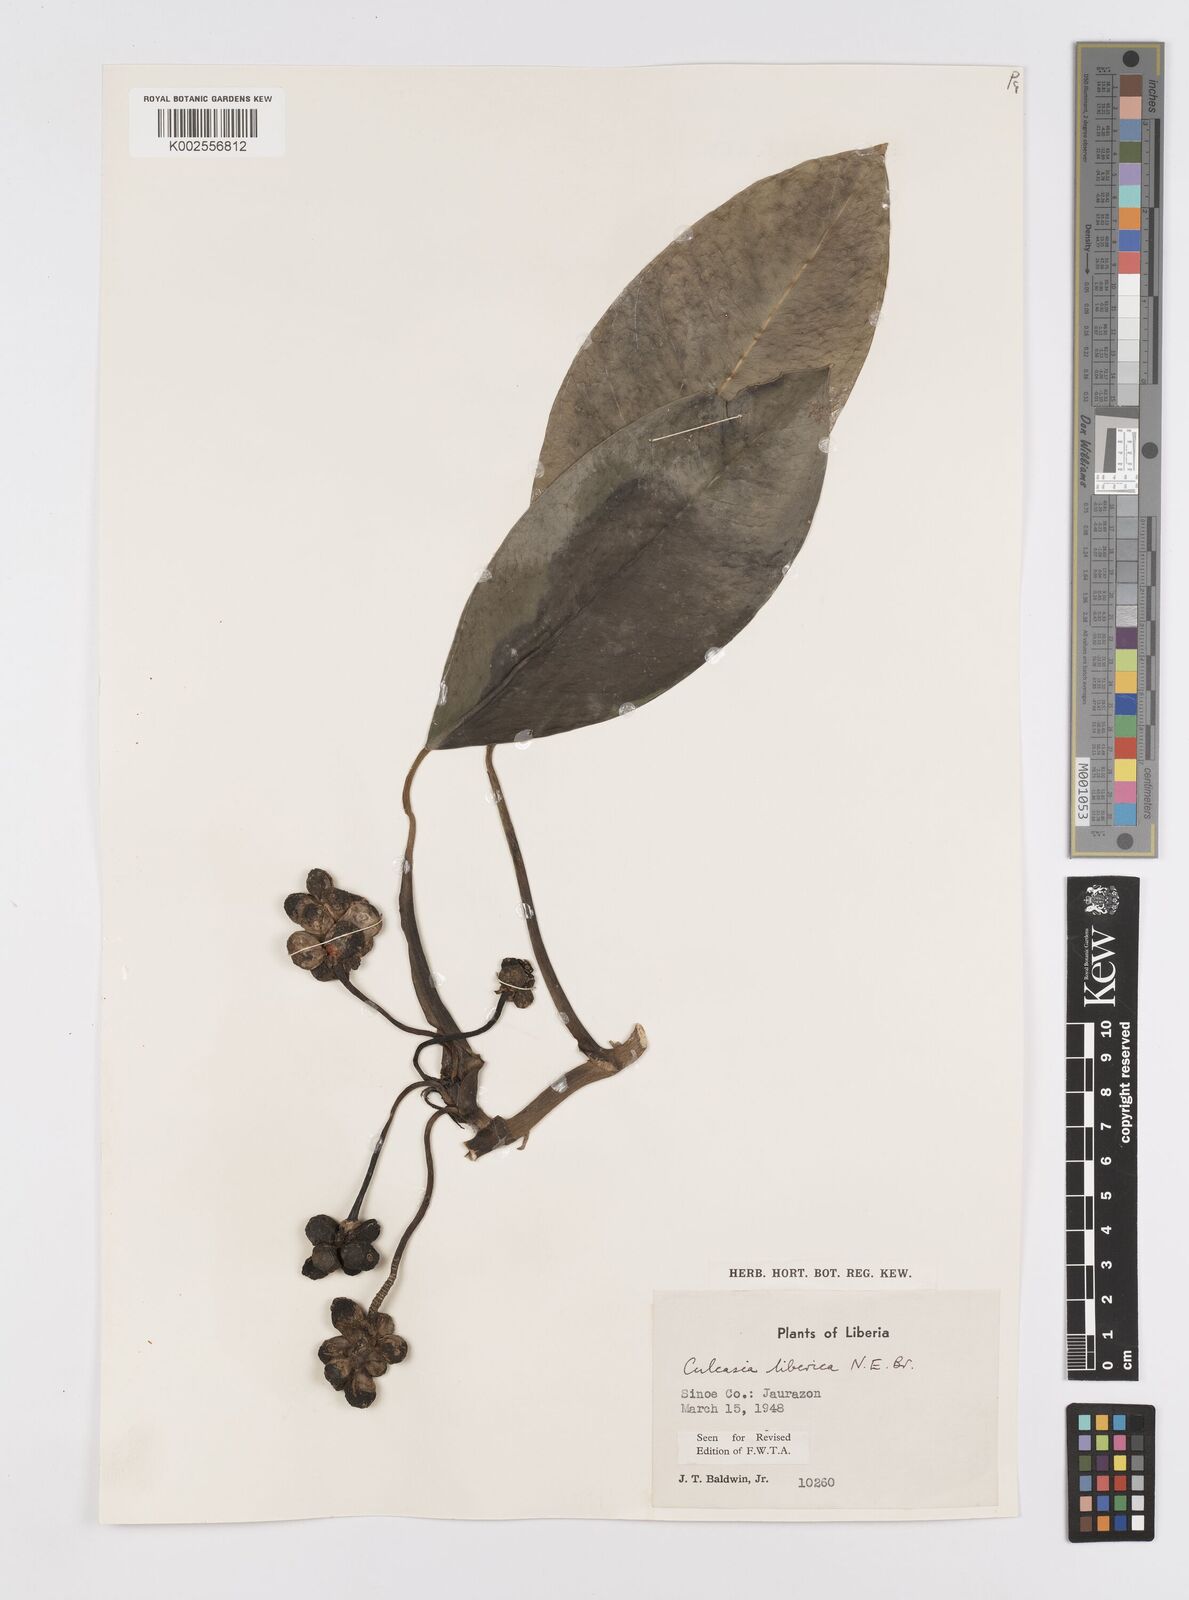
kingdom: Plantae
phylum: Tracheophyta
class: Liliopsida
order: Alismatales
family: Araceae
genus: Culcasia
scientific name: Culcasia liberica
